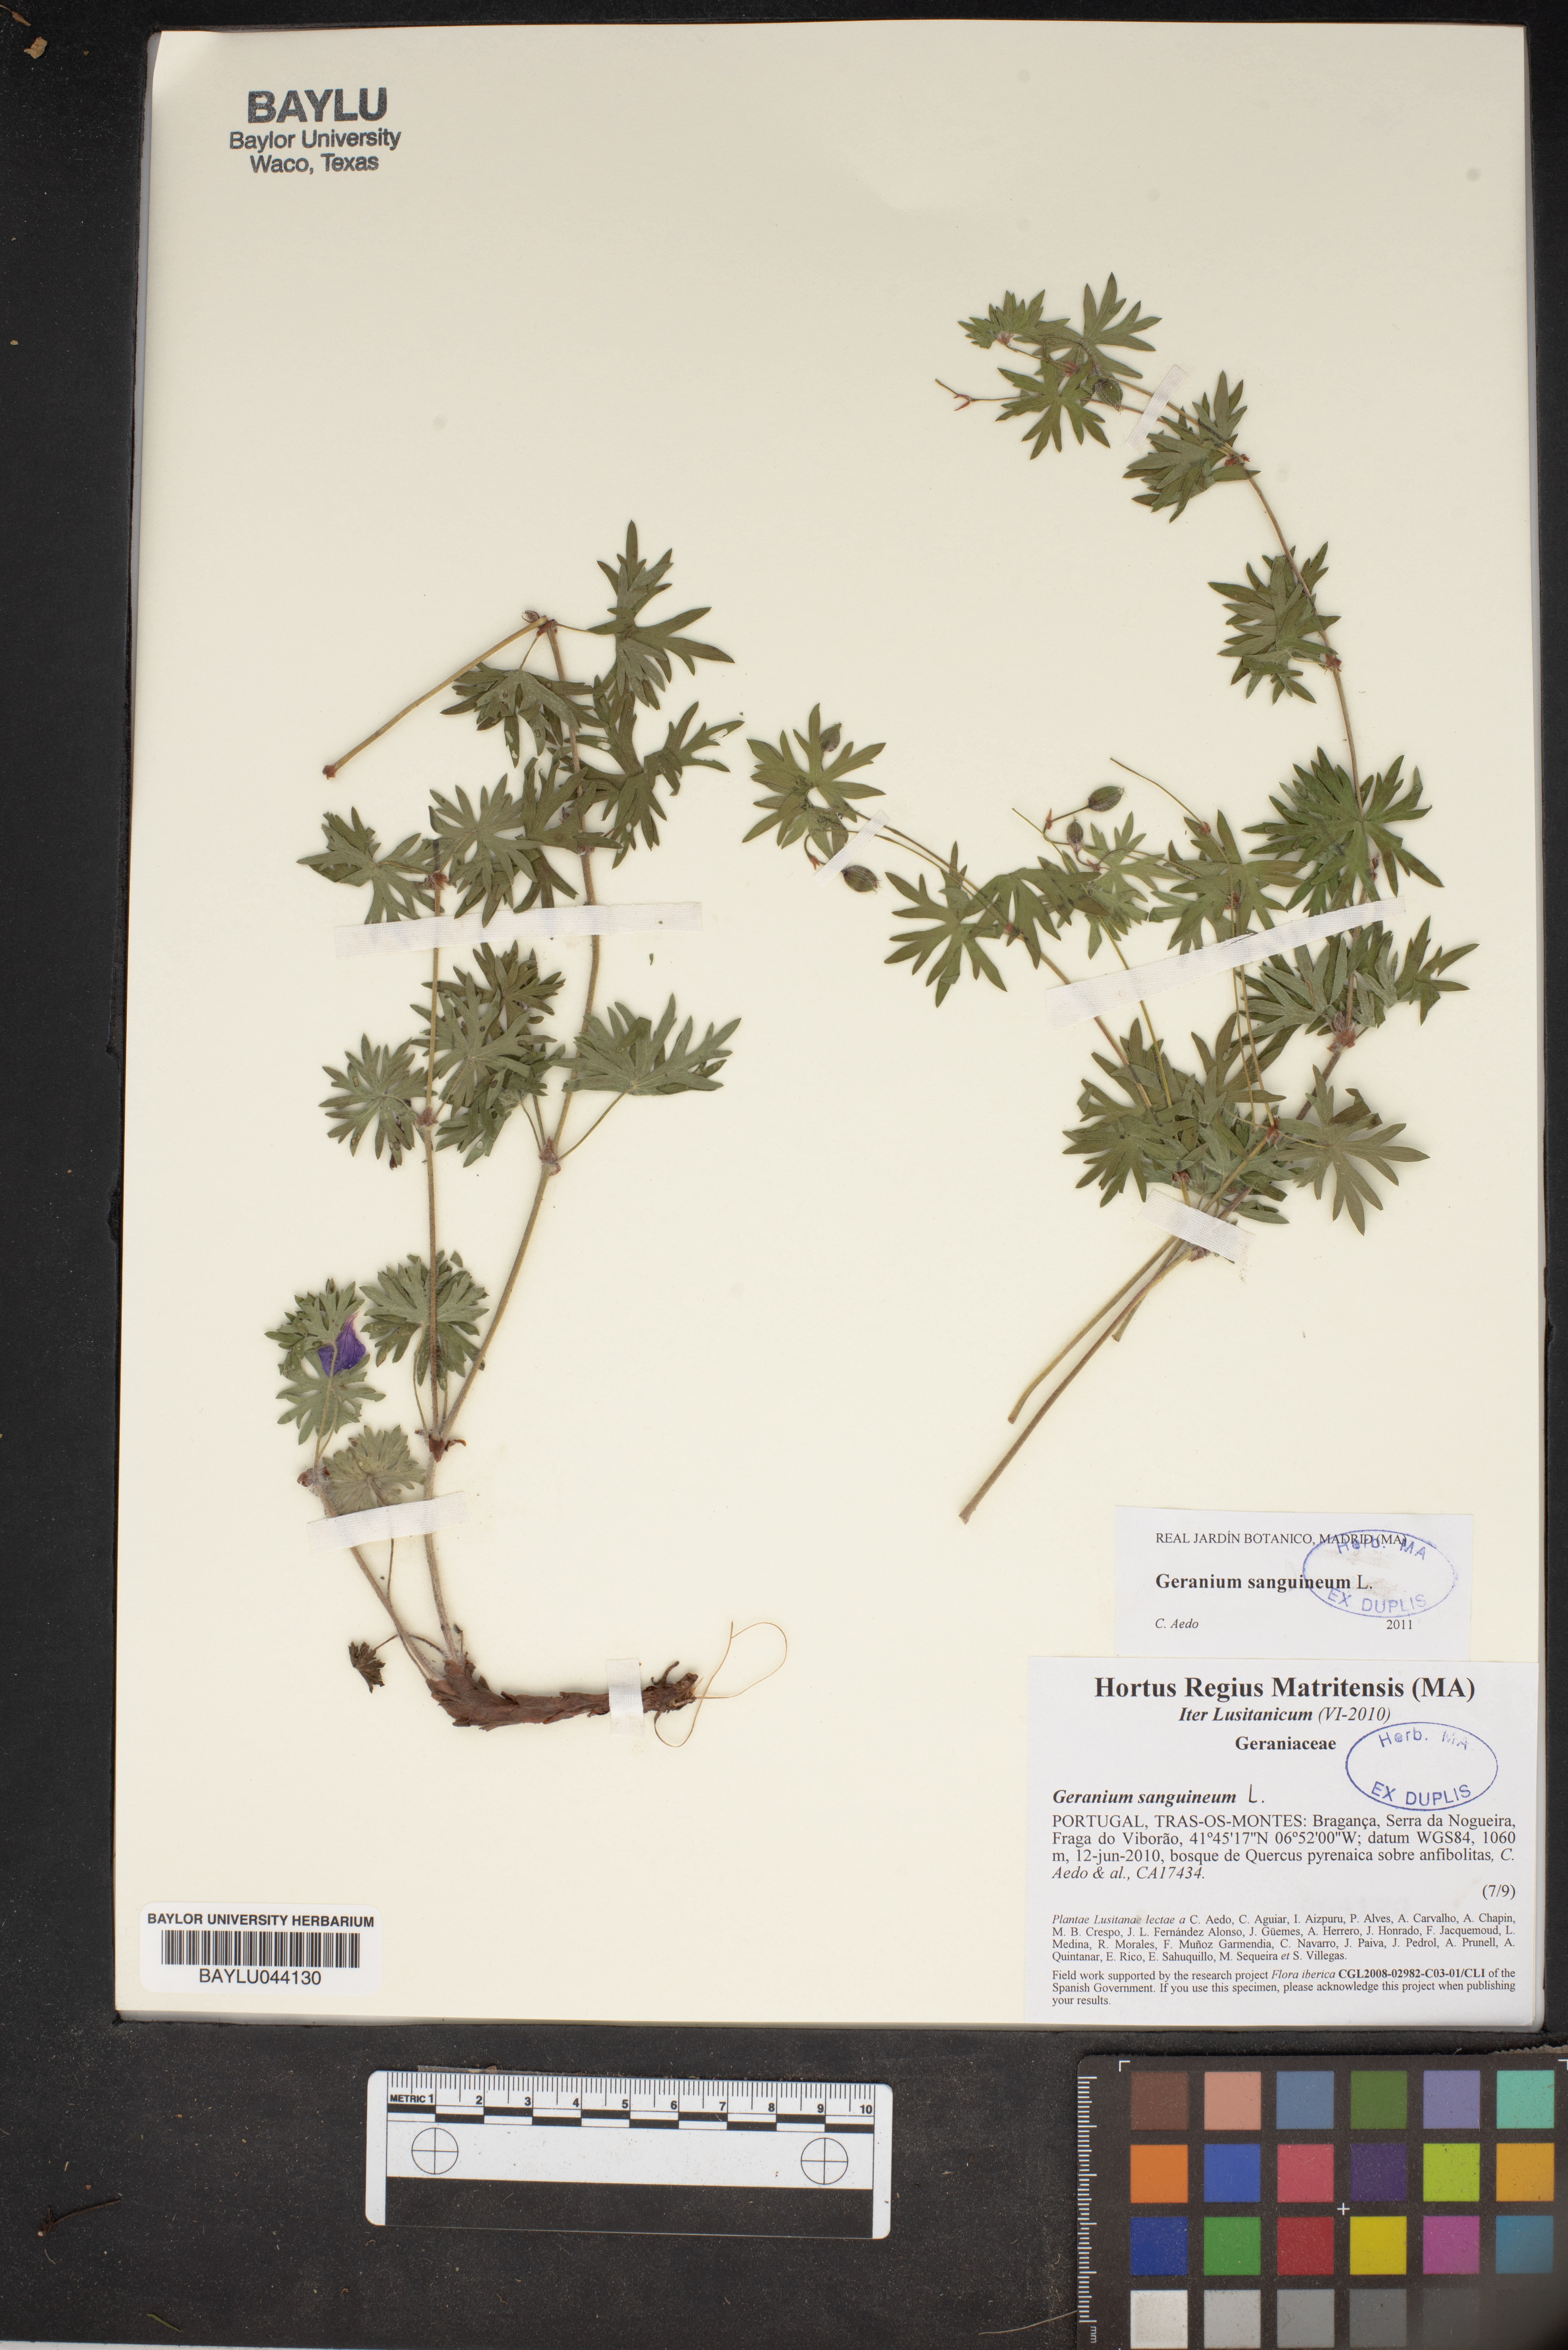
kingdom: Plantae
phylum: Tracheophyta
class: Magnoliopsida
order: Geraniales
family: Geraniaceae
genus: Geranium
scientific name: Geranium sanguineum
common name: Bloody crane's-bill
